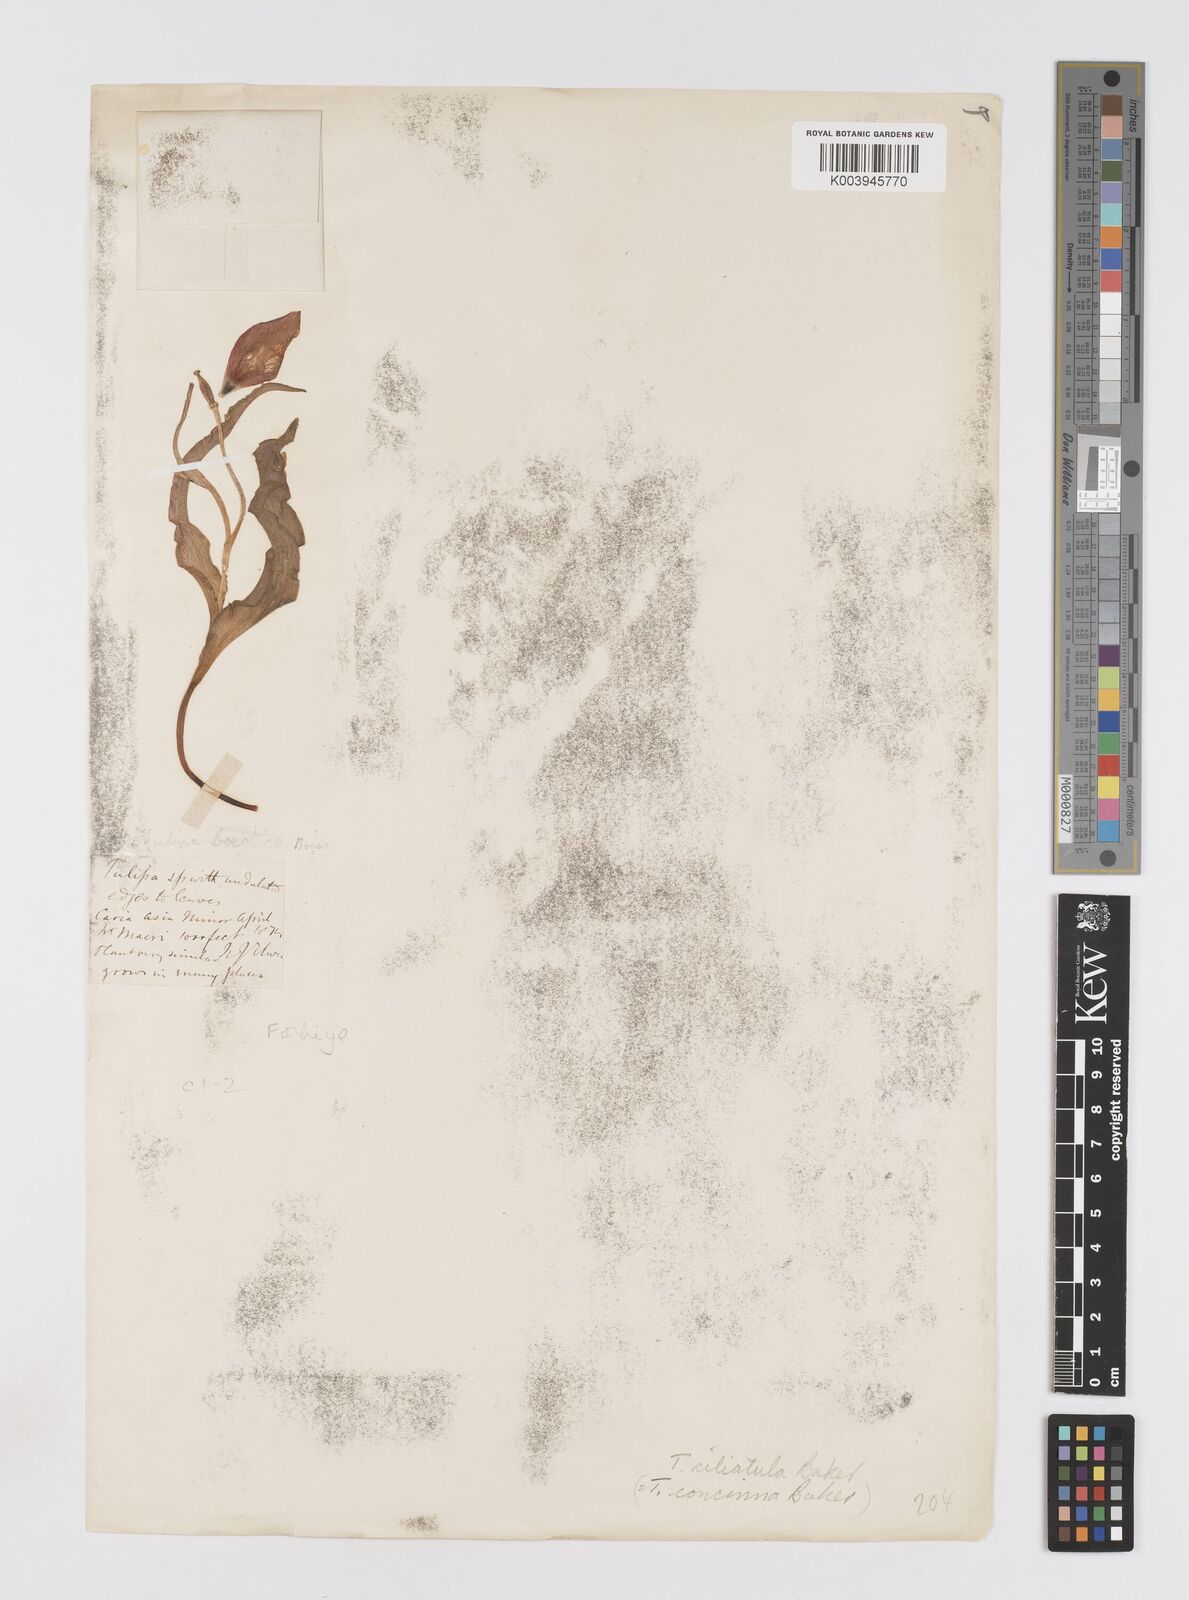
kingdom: Plantae
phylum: Tracheophyta
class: Liliopsida
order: Liliales
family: Liliaceae
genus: Tulipa
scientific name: Tulipa foliosa
